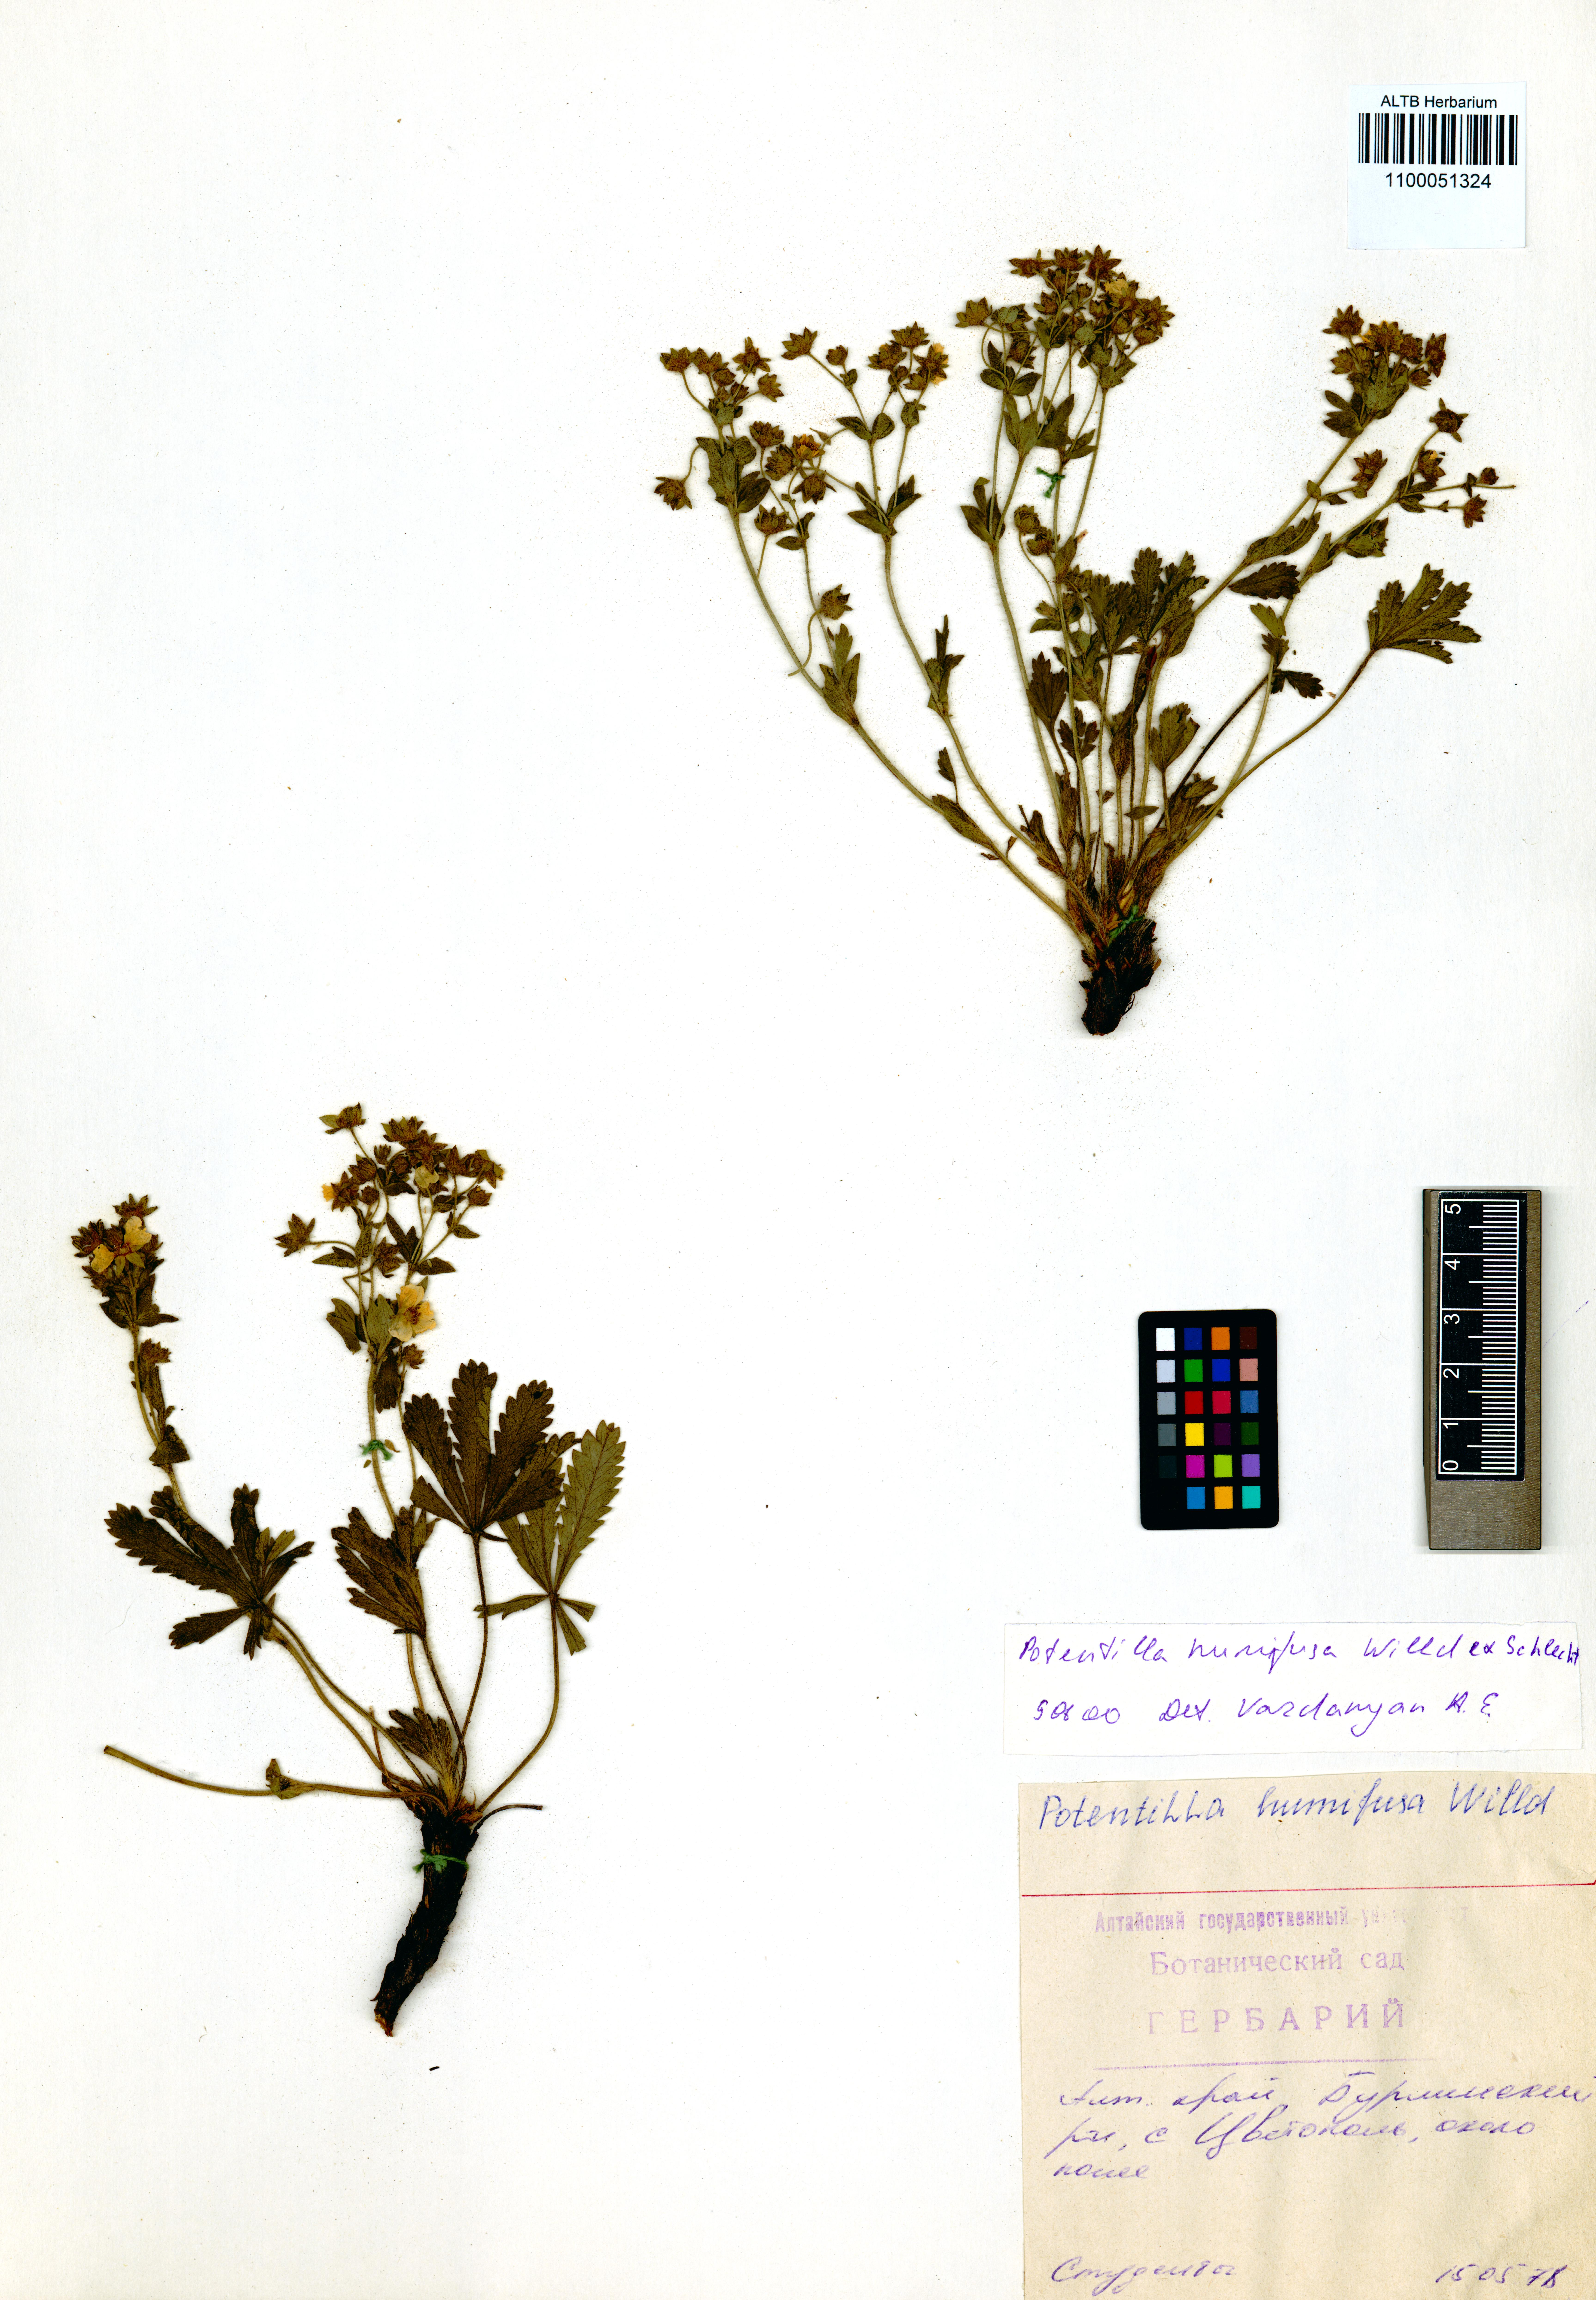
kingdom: Plantae
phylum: Tracheophyta
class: Magnoliopsida
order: Rosales
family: Rosaceae
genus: Potentilla
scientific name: Potentilla humifusa
